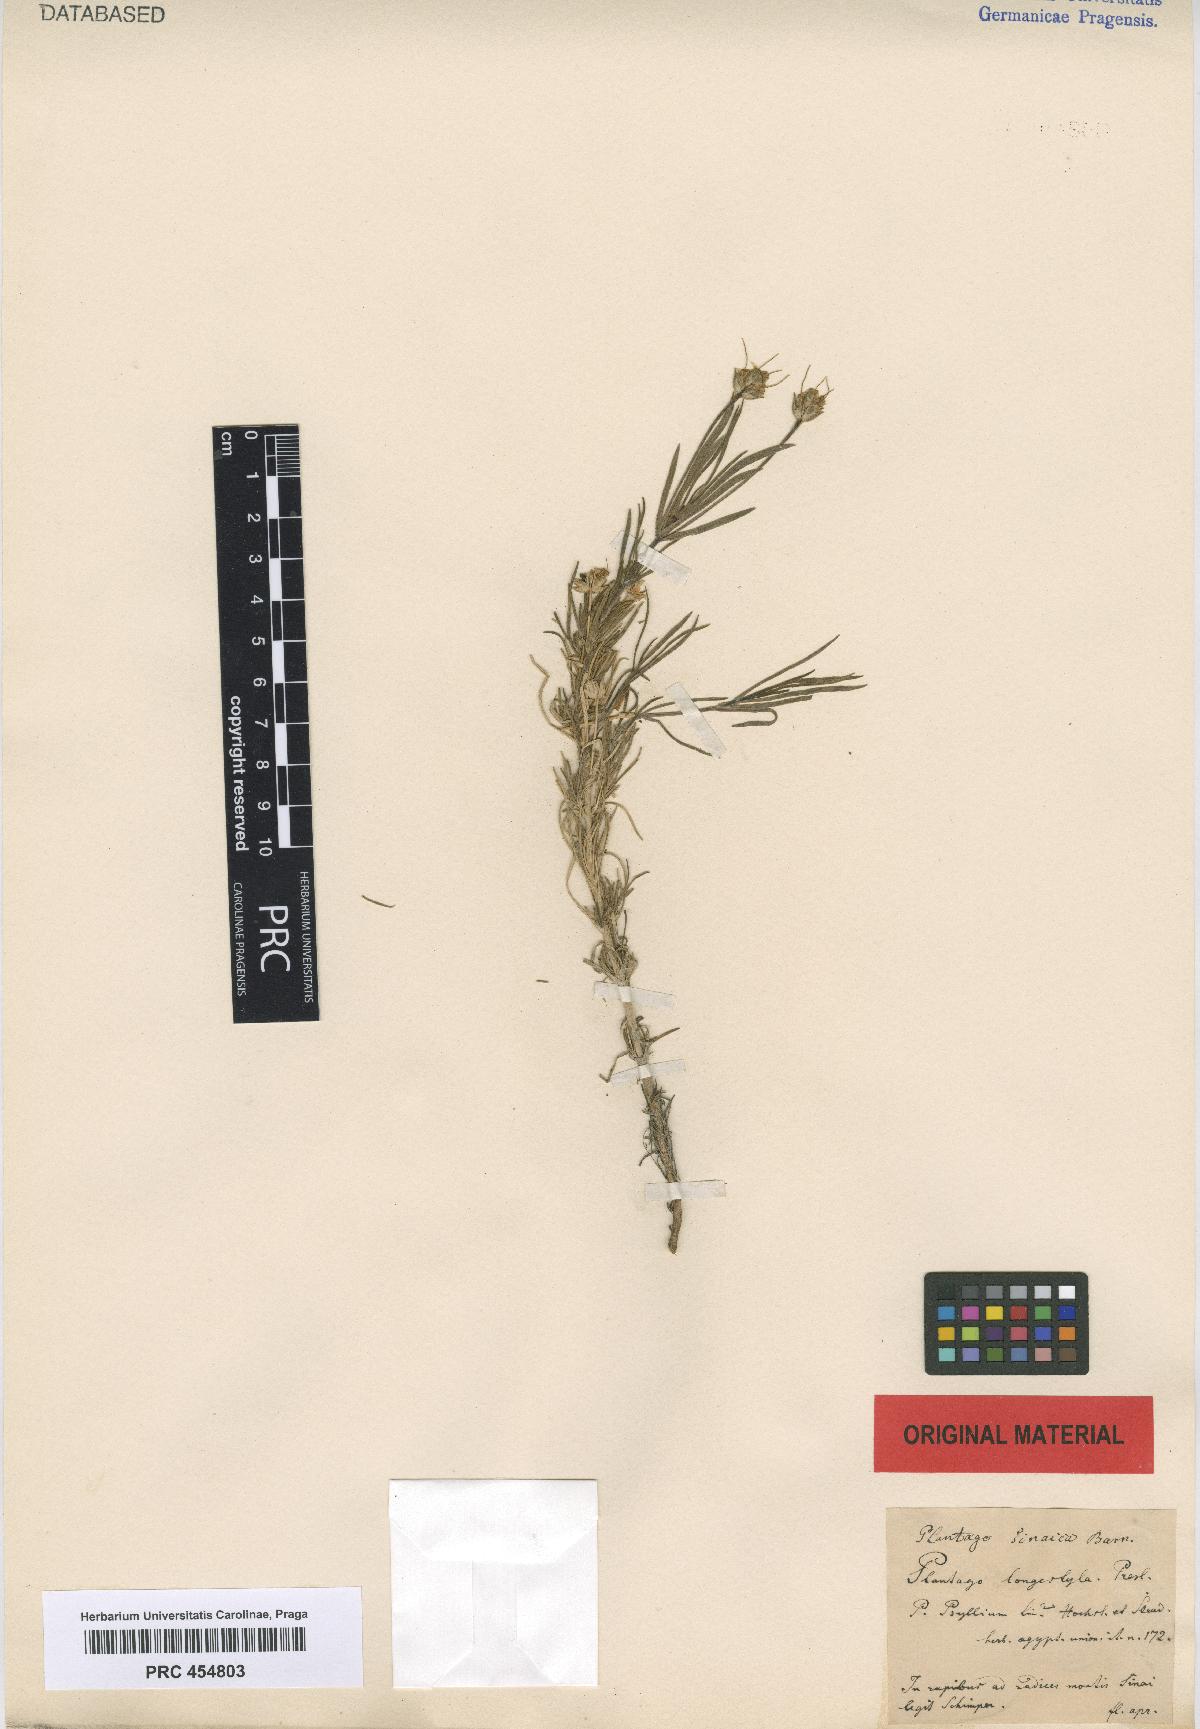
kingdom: Plantae
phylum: Tracheophyta
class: Magnoliopsida
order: Lamiales
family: Plantaginaceae
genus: Plantago
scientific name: Plantago longistyla
